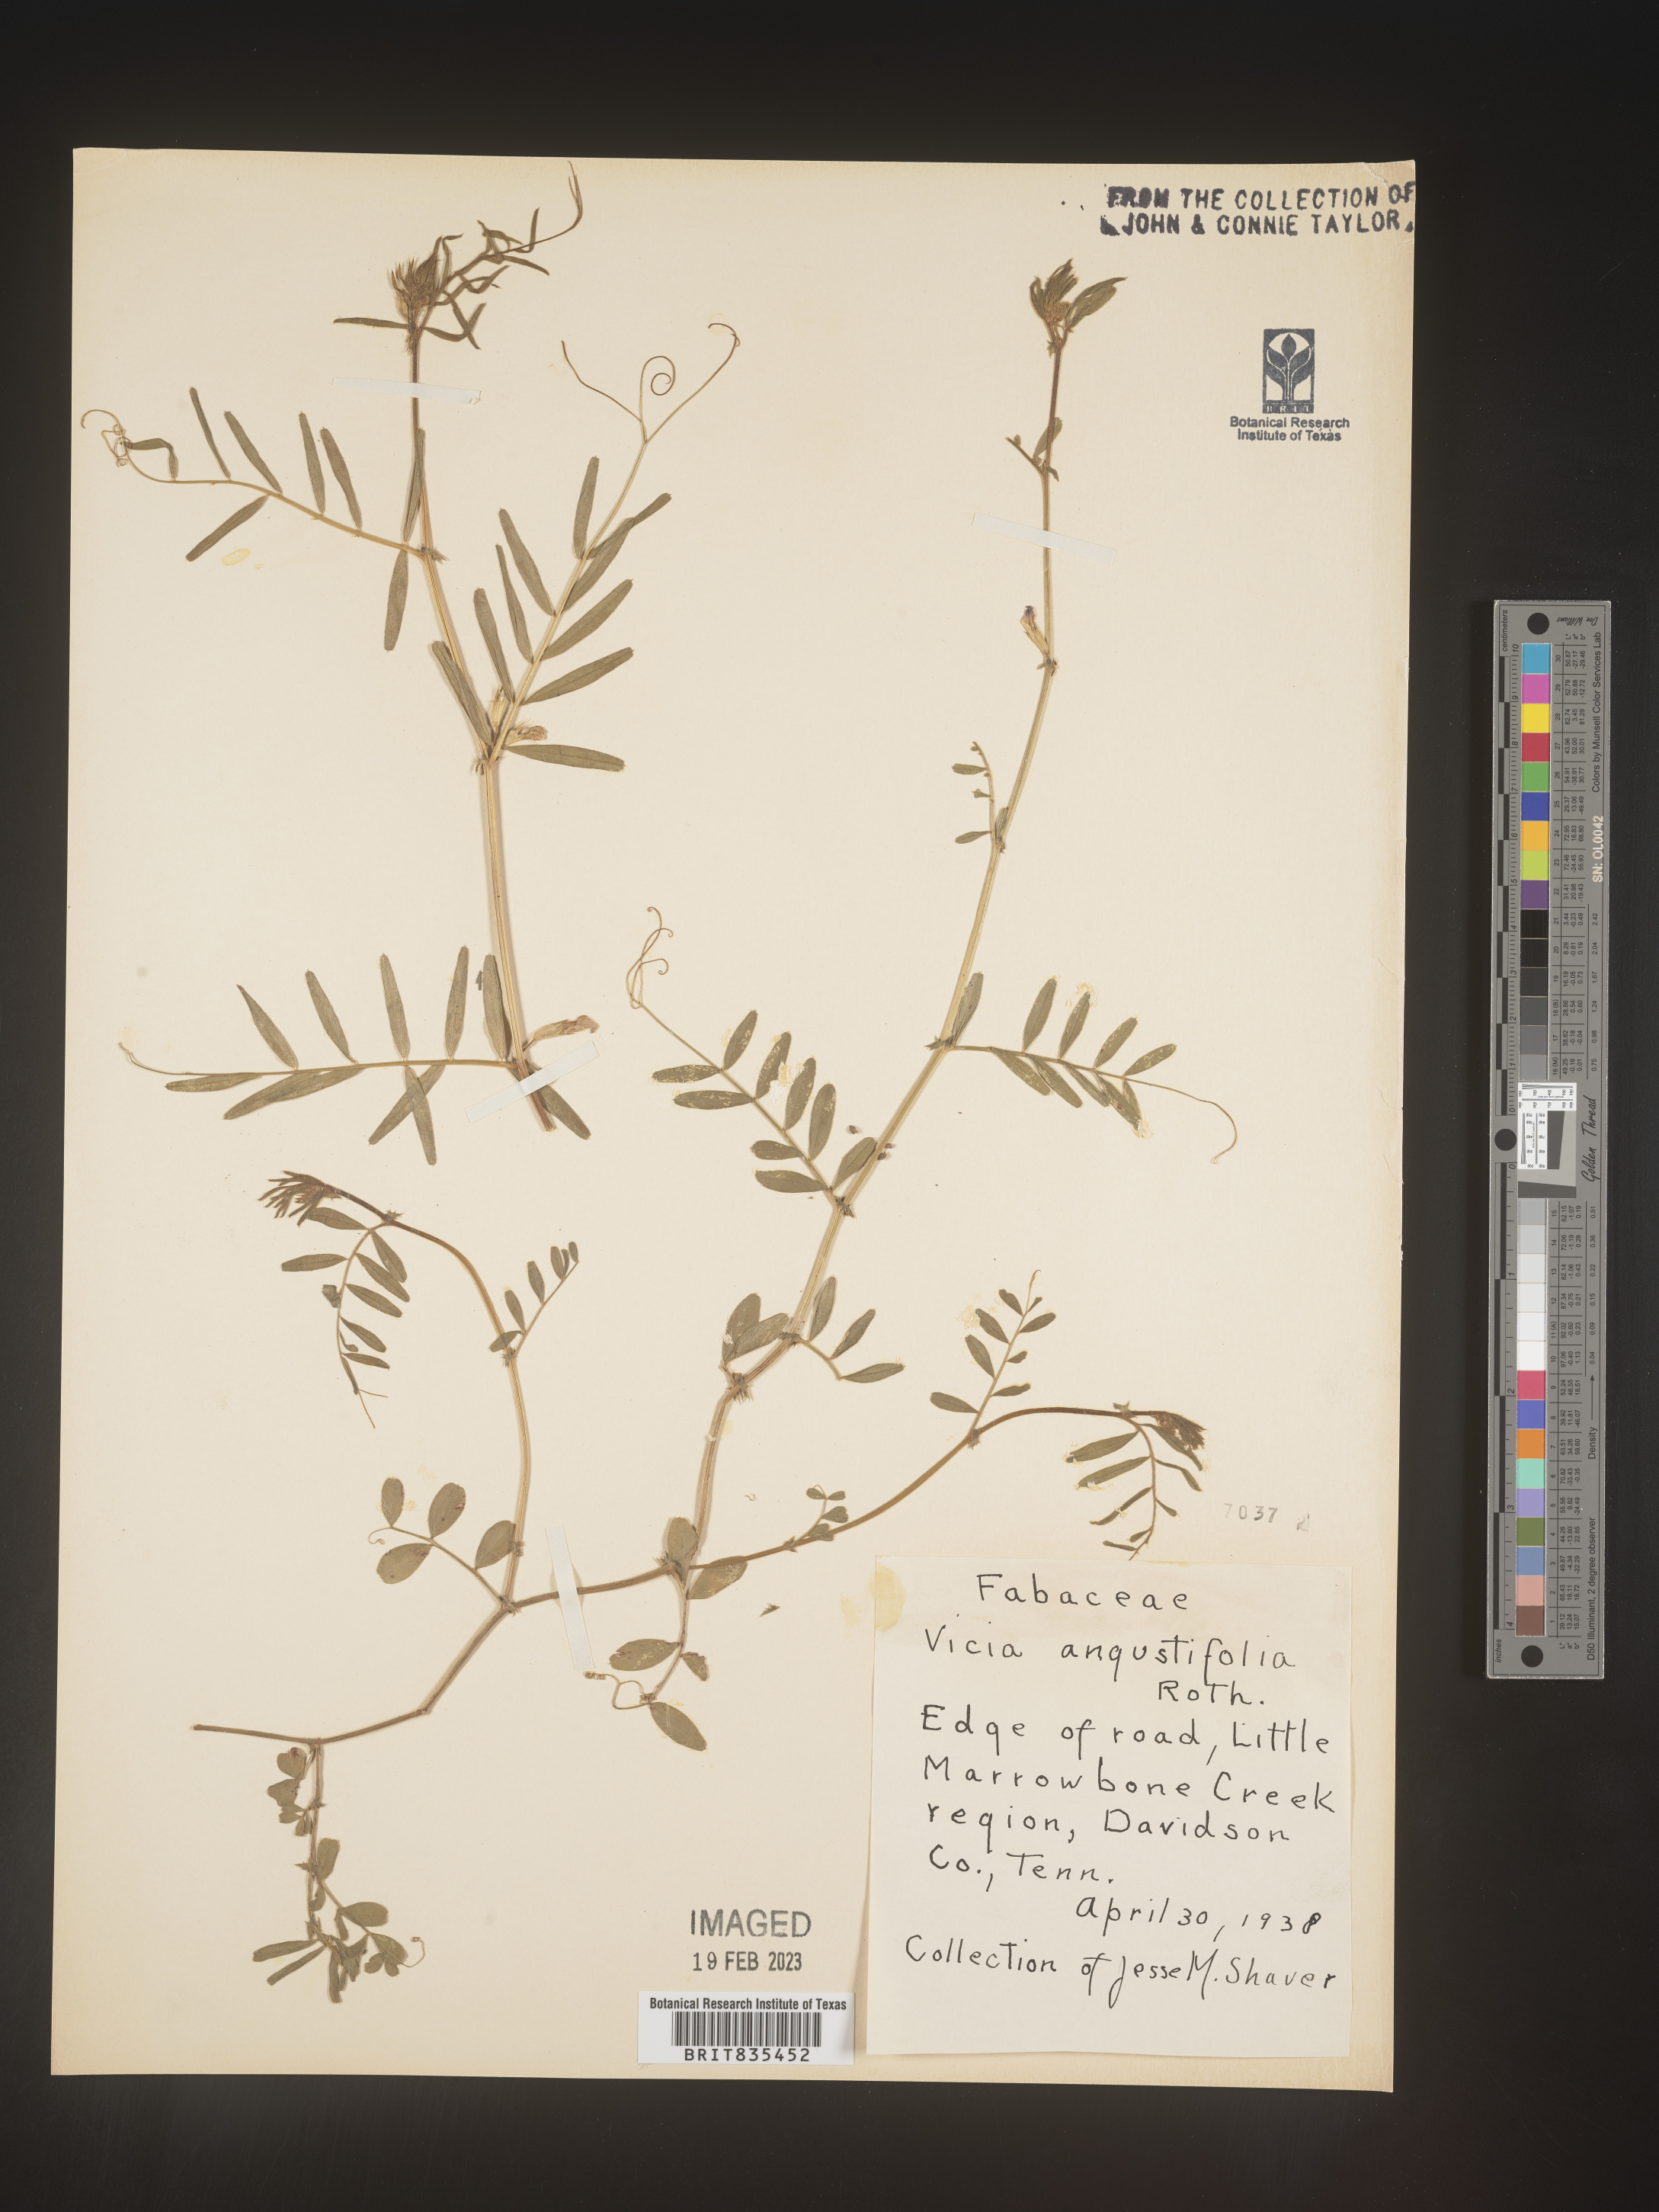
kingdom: Plantae
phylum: Tracheophyta
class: Magnoliopsida
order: Fabales
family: Fabaceae
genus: Vicia
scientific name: Vicia sativa
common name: Garden vetch
